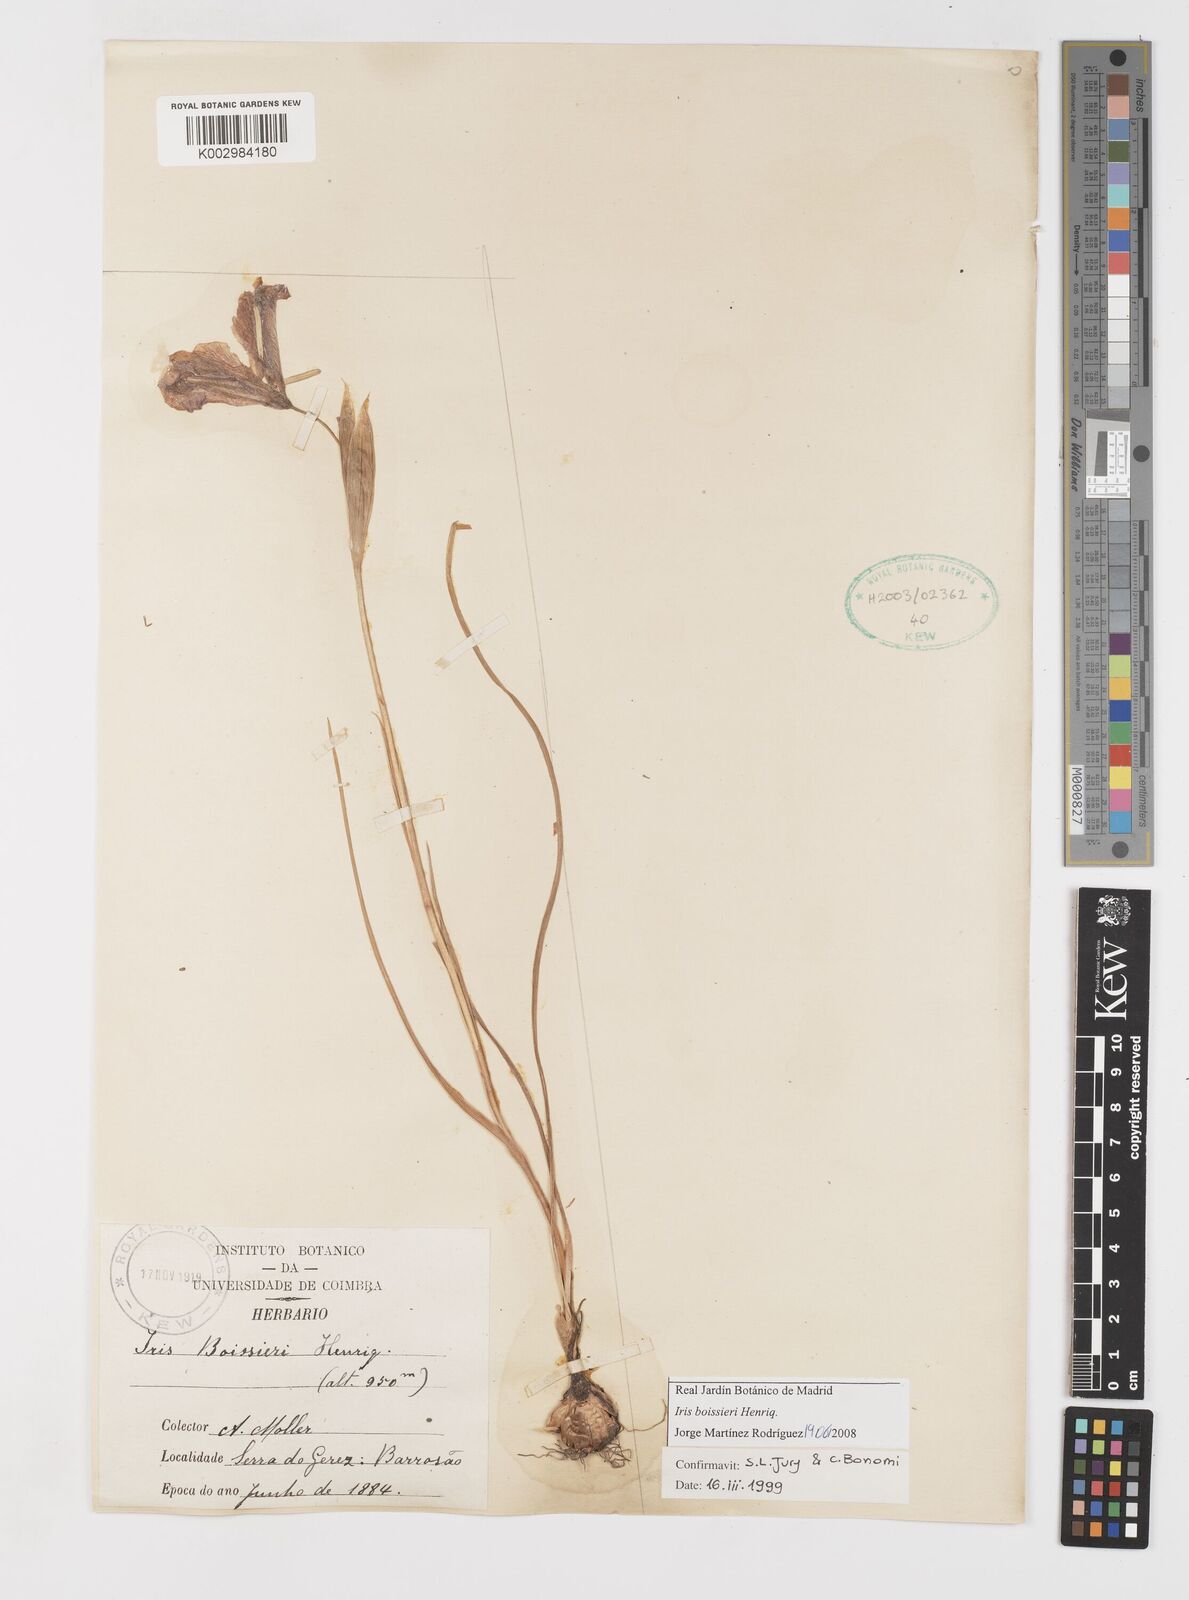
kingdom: Plantae
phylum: Tracheophyta
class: Liliopsida
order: Asparagales
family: Iridaceae
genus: Iris
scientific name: Iris boissieri
